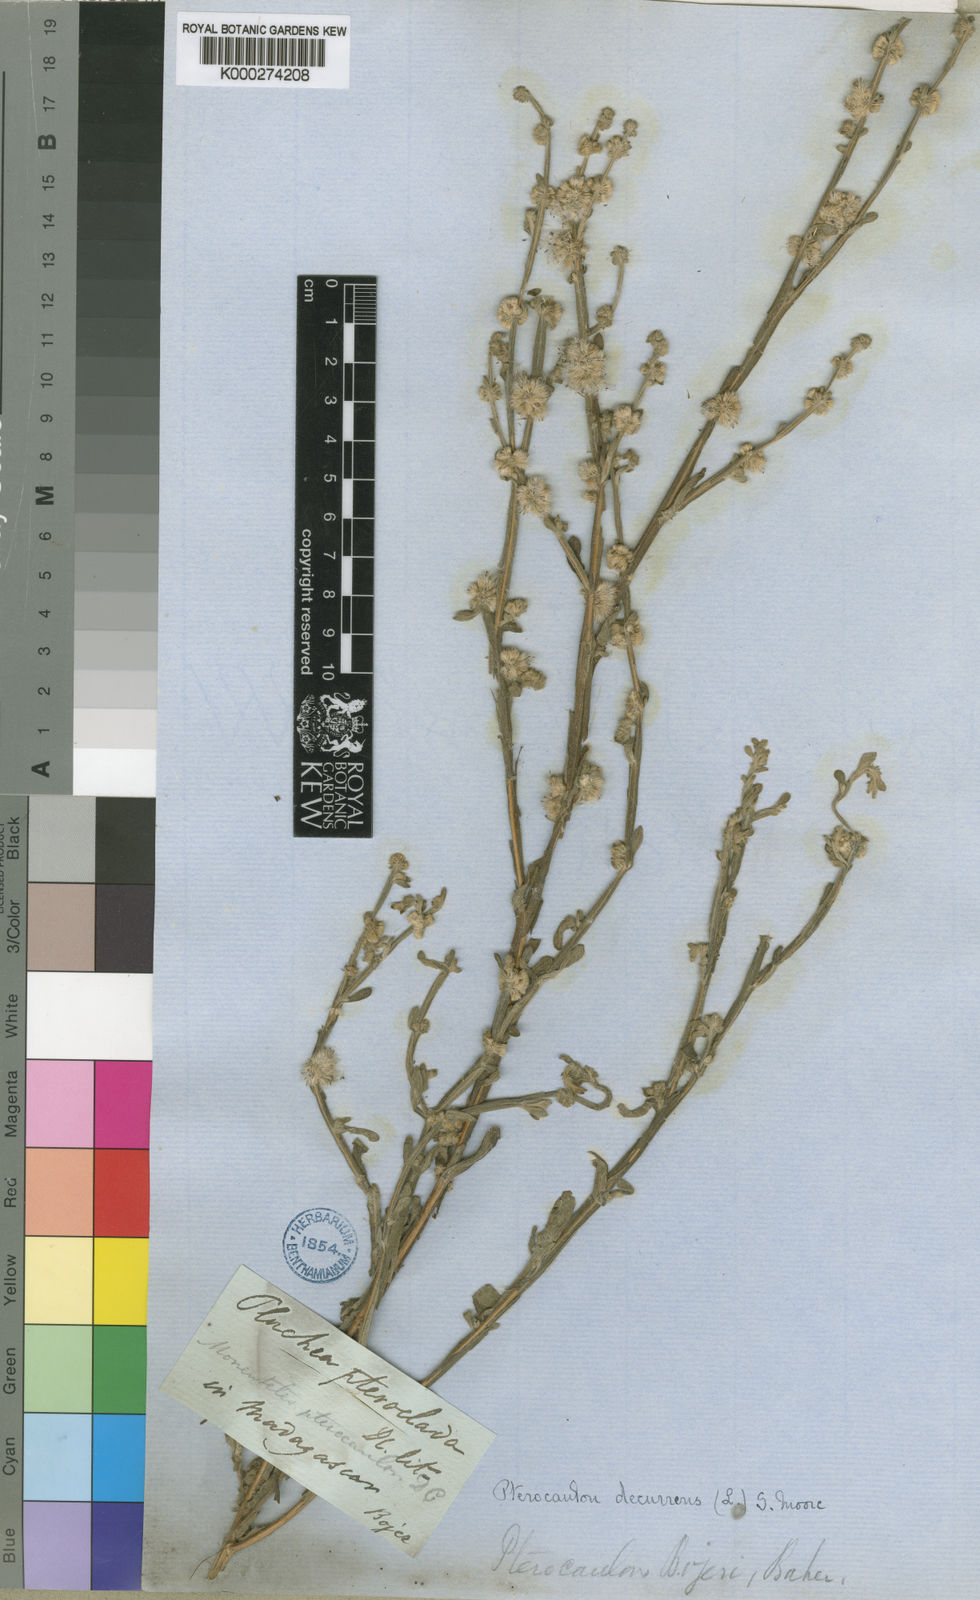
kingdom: Plantae
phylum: Tracheophyta
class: Magnoliopsida
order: Asterales
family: Asteraceae
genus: Neojeffreya
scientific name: Neojeffreya decurrens
